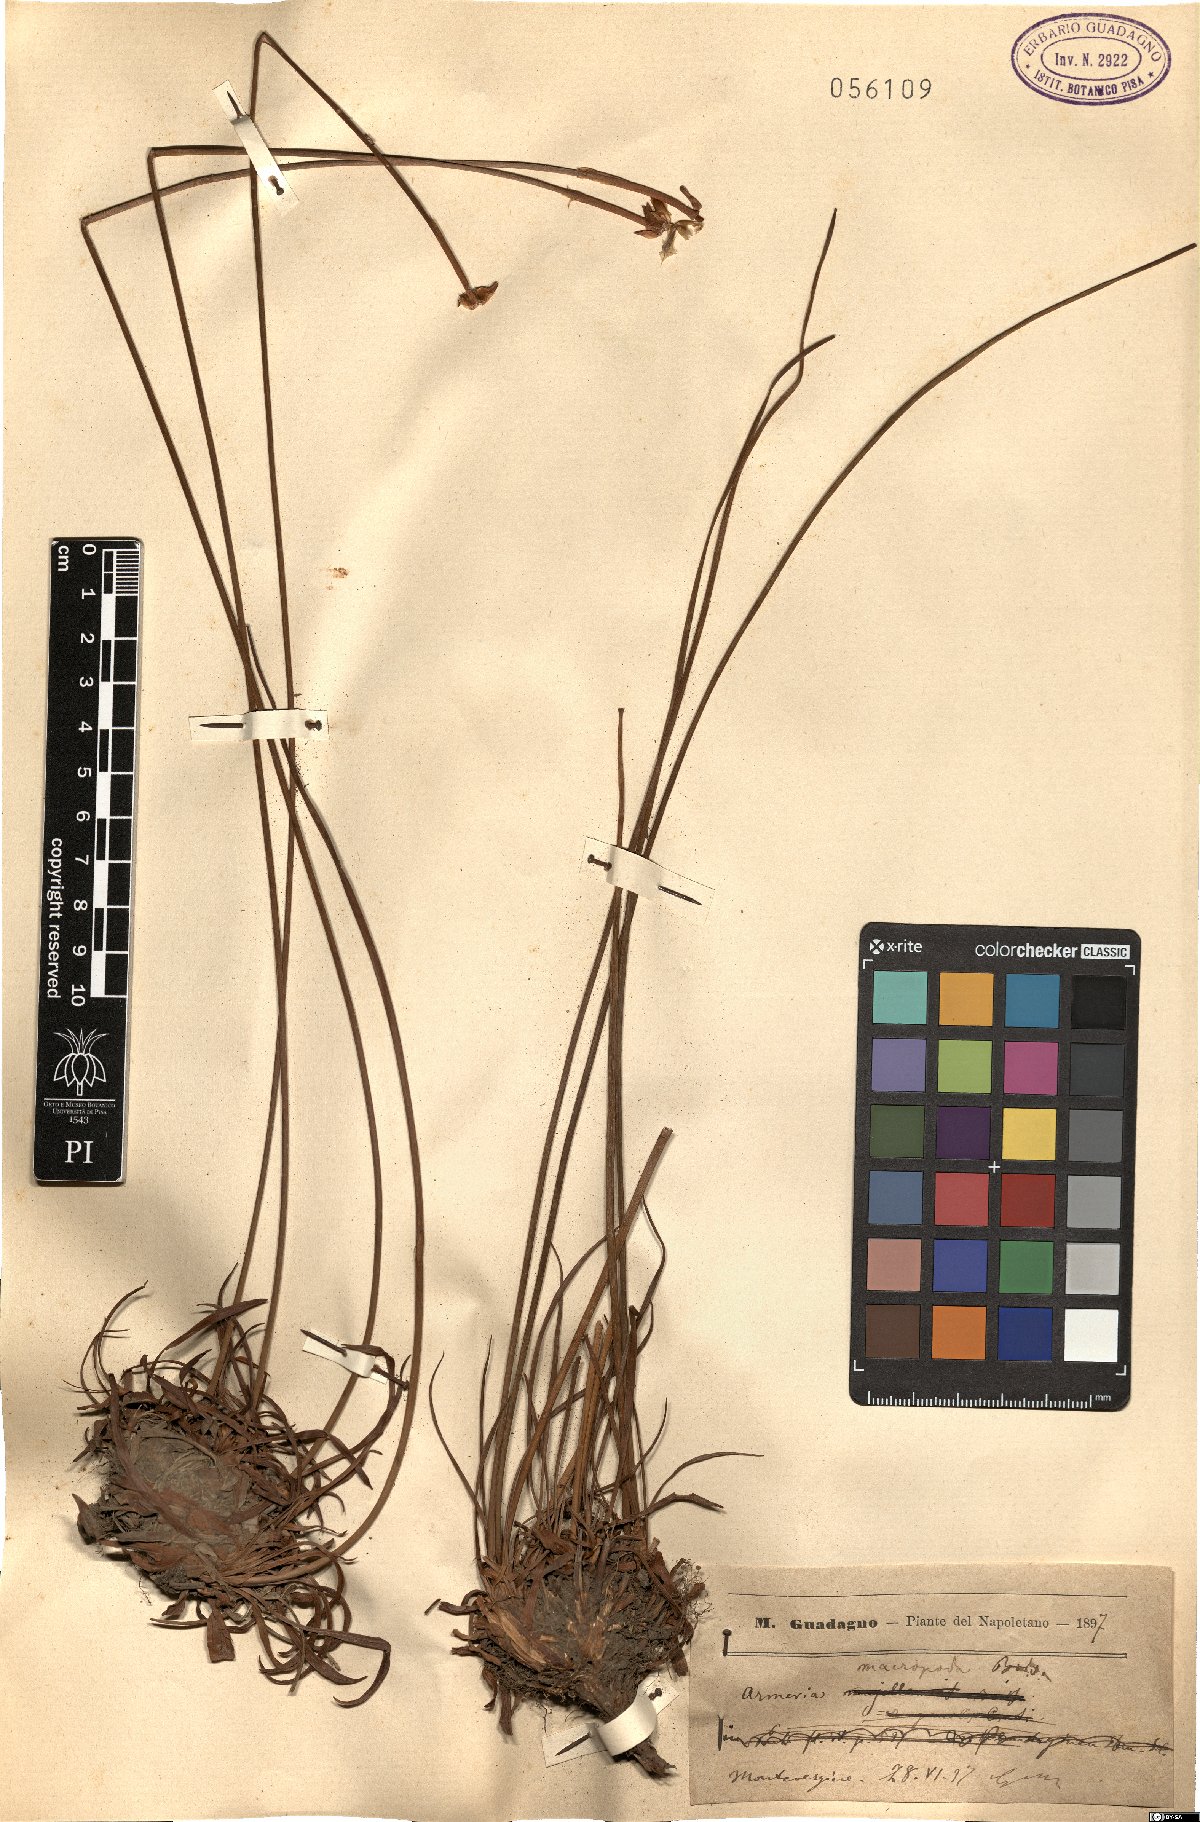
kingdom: Plantae
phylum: Tracheophyta
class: Magnoliopsida
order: Caryophyllales
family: Plumbaginaceae
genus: Armeria
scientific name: Armeria macropoda
